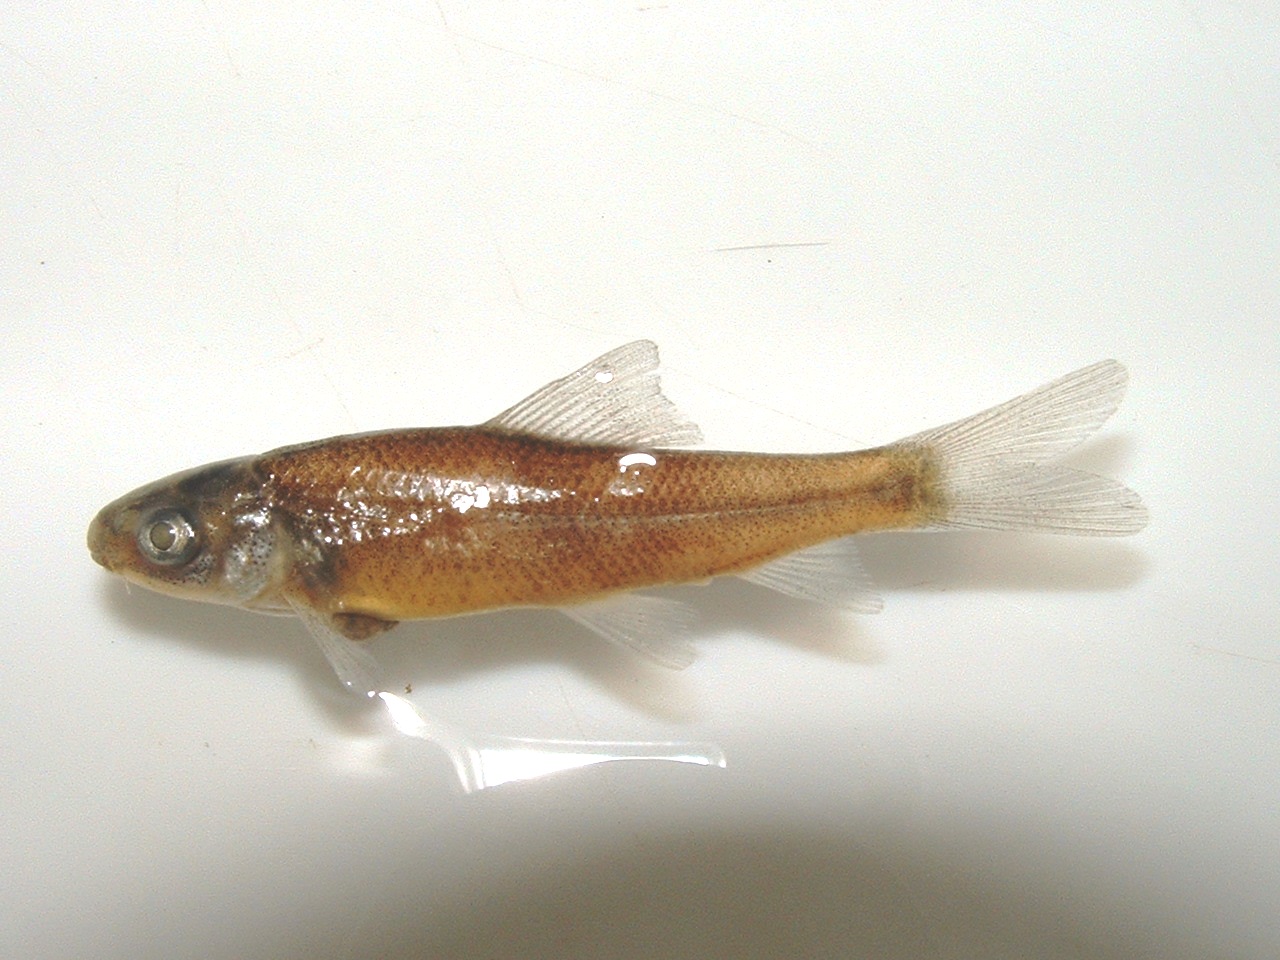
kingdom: Animalia
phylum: Chordata
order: Cypriniformes
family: Cyprinidae
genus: Labeo
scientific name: Labeo capensis
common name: Orange river mudfish
